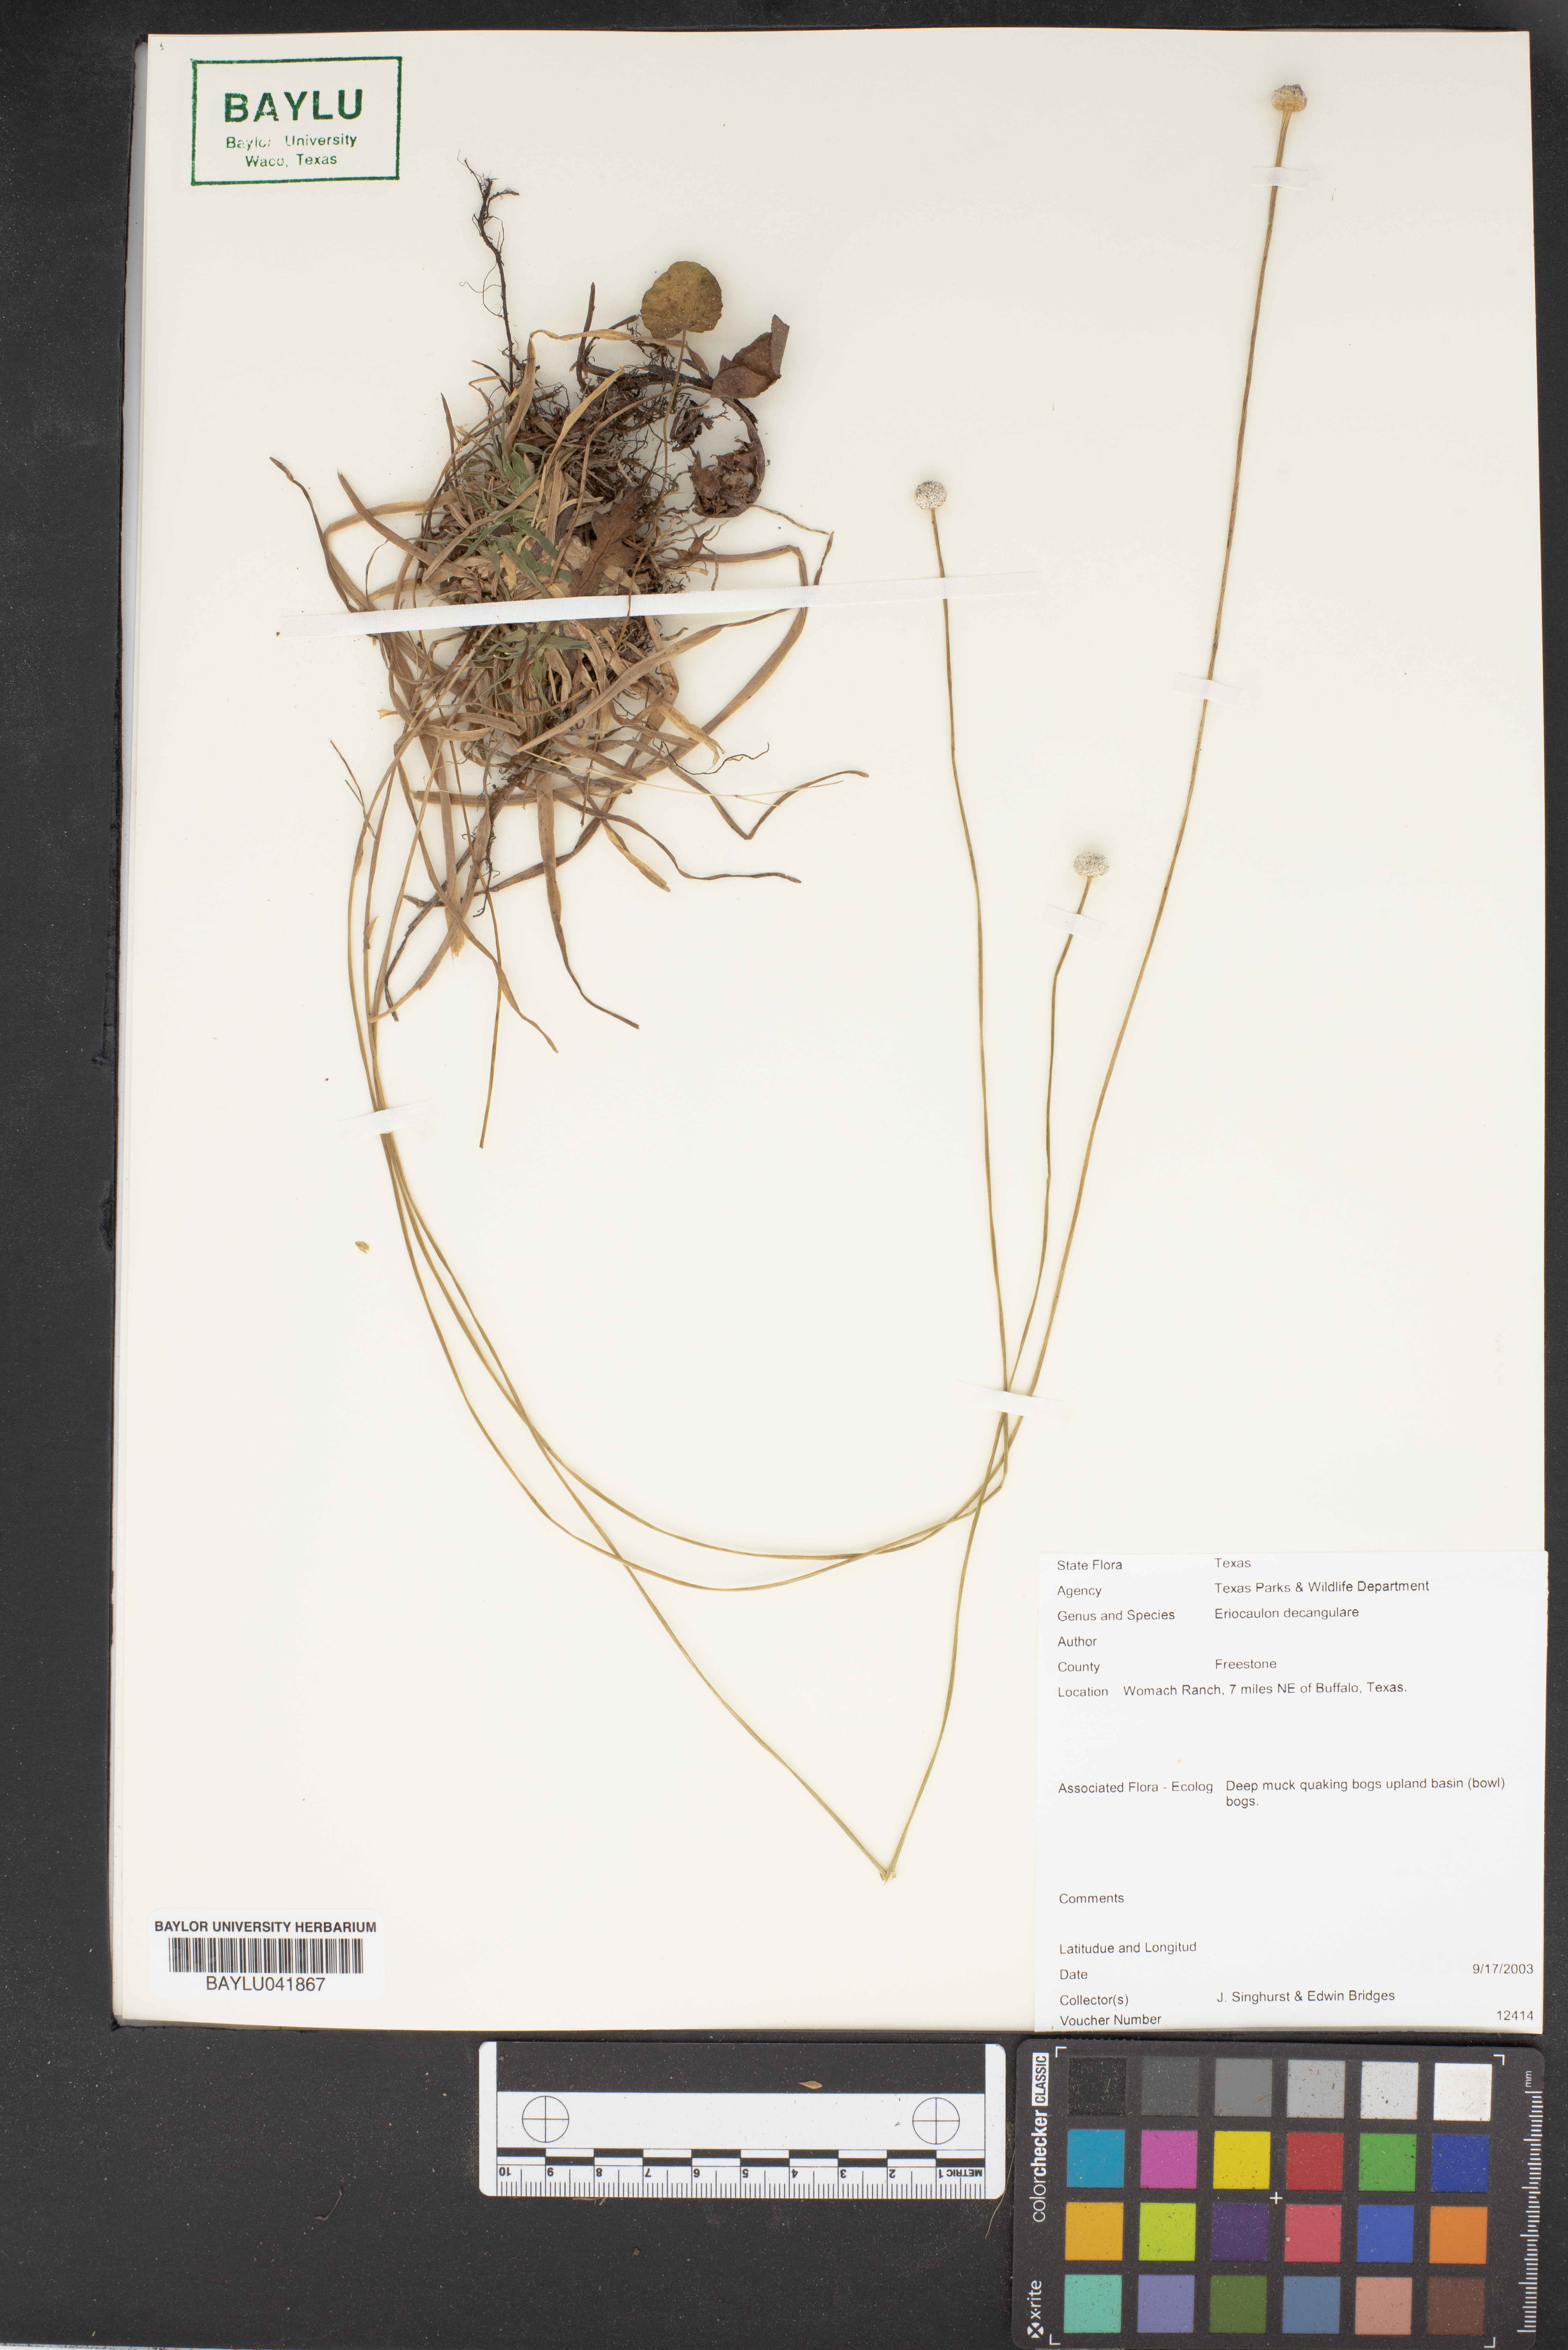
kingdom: Plantae
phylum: Tracheophyta
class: Liliopsida
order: Poales
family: Eriocaulaceae
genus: Eriocaulon
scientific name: Eriocaulon decangulare
